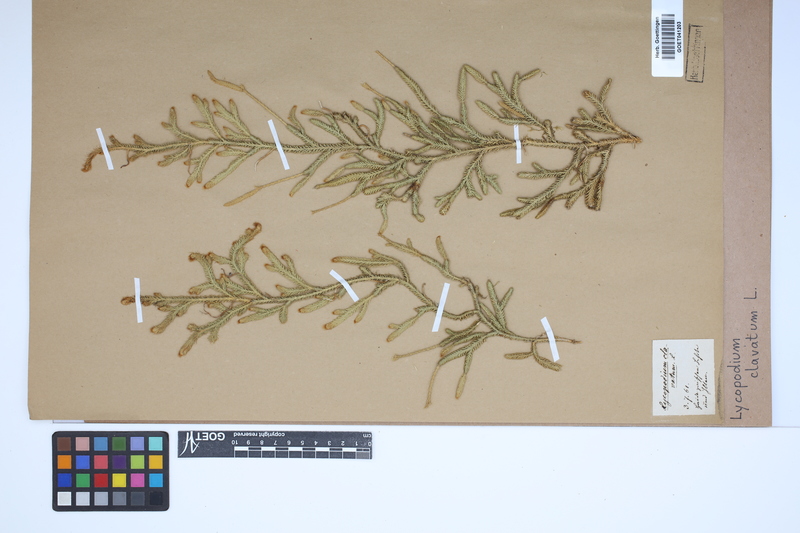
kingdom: Plantae
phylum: Tracheophyta
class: Lycopodiopsida
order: Lycopodiales
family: Lycopodiaceae
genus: Lycopodium
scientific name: Lycopodium clavatum
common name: Stag's-horn clubmoss
